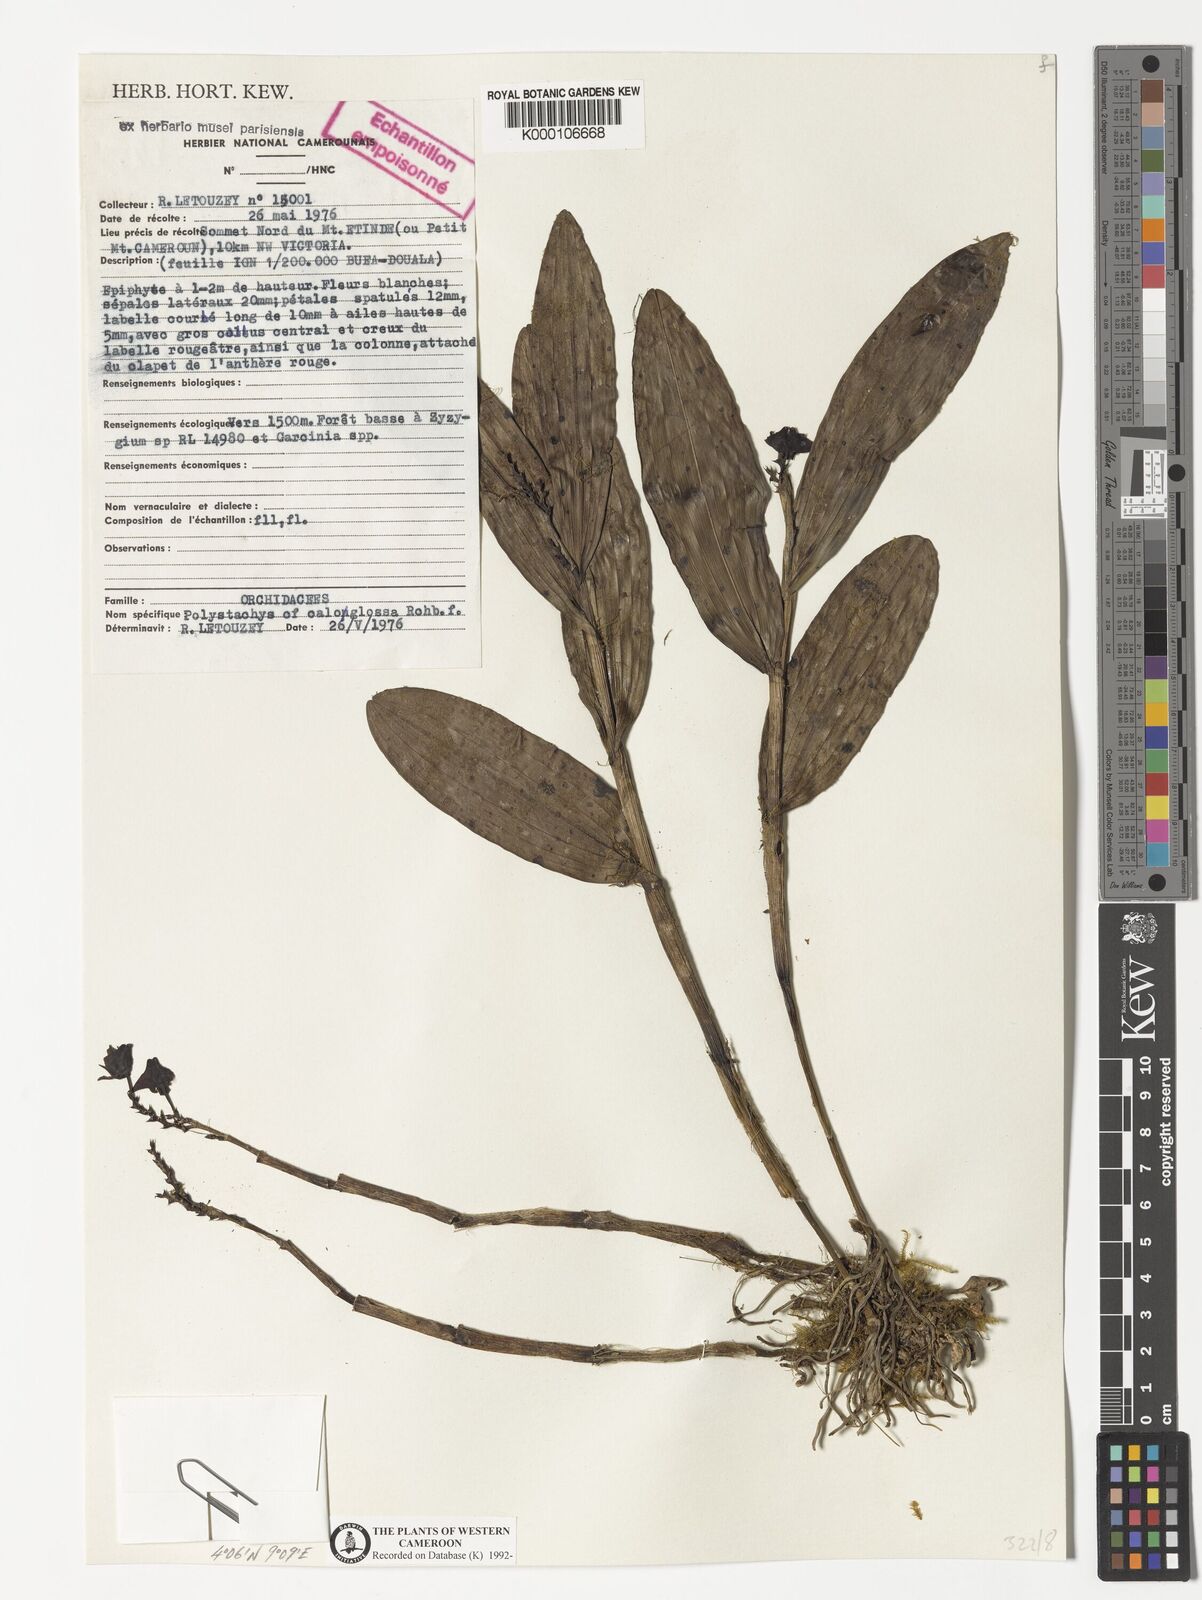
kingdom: Plantae
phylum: Tracheophyta
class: Liliopsida
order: Asparagales
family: Orchidaceae
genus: Polystachya
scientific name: Polystachya caloglossa
